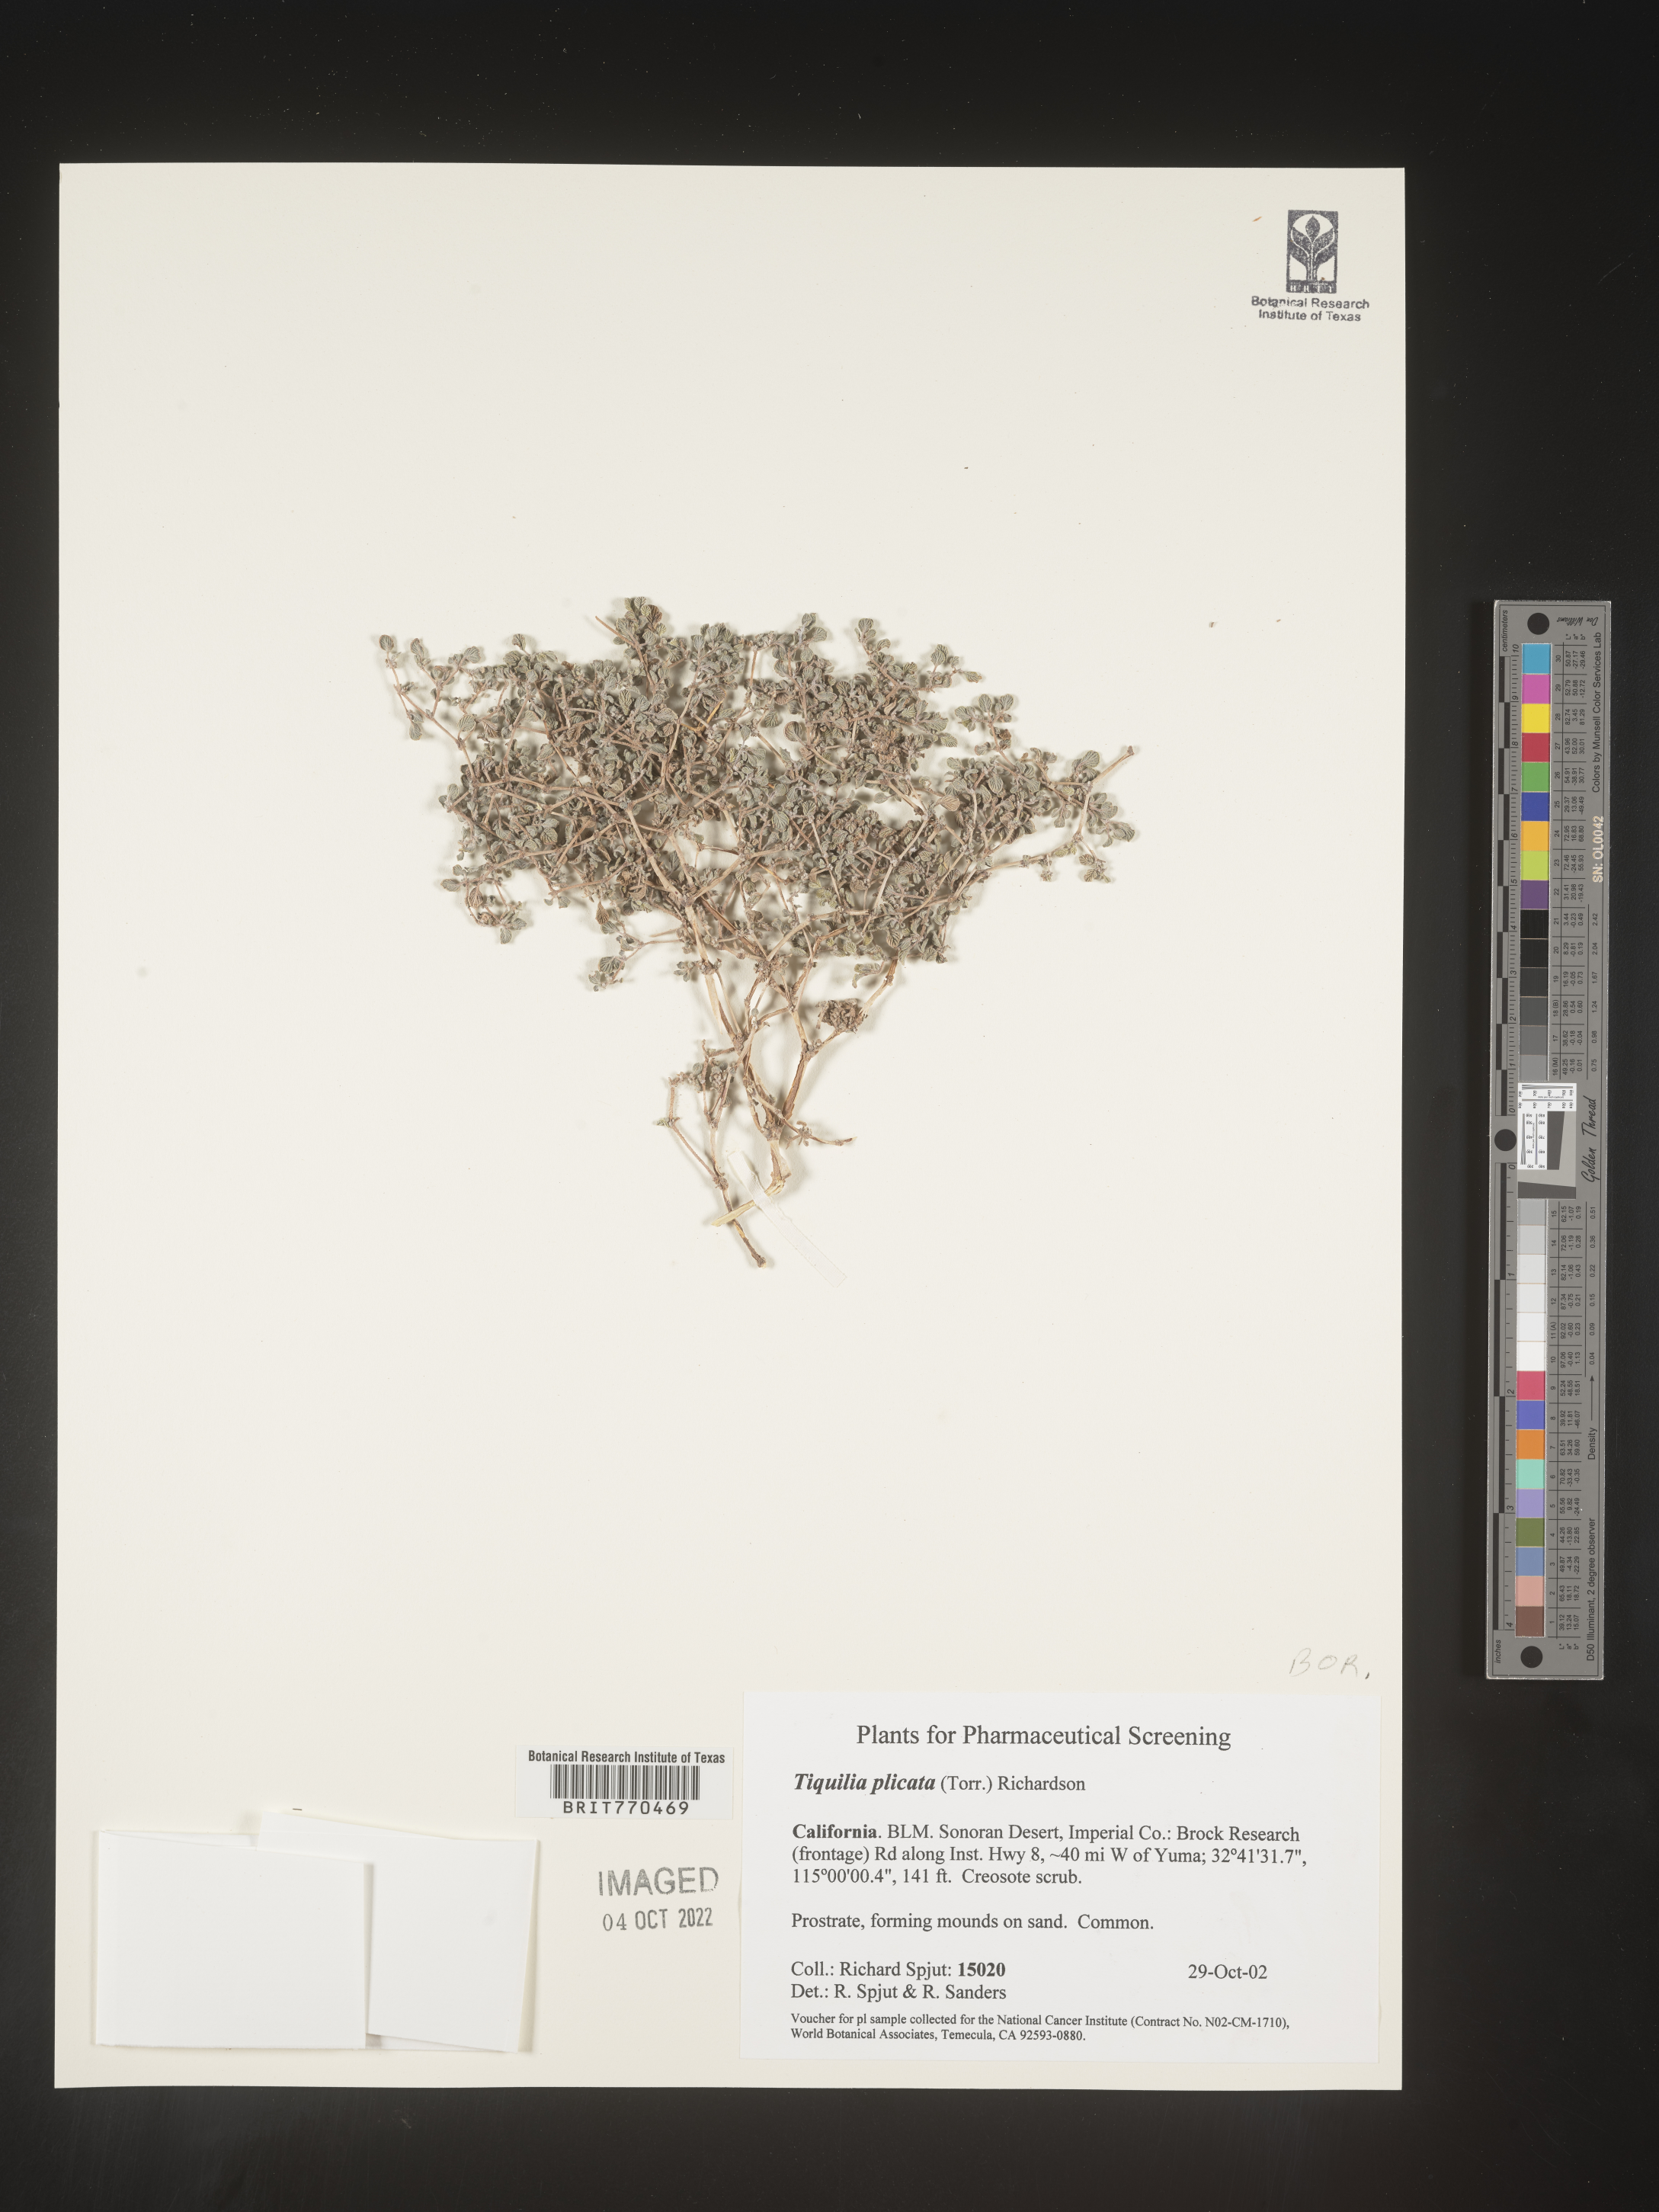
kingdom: Plantae
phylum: Tracheophyta
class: Magnoliopsida
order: Boraginales
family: Ehretiaceae
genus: Tiquilia
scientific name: Tiquilia
